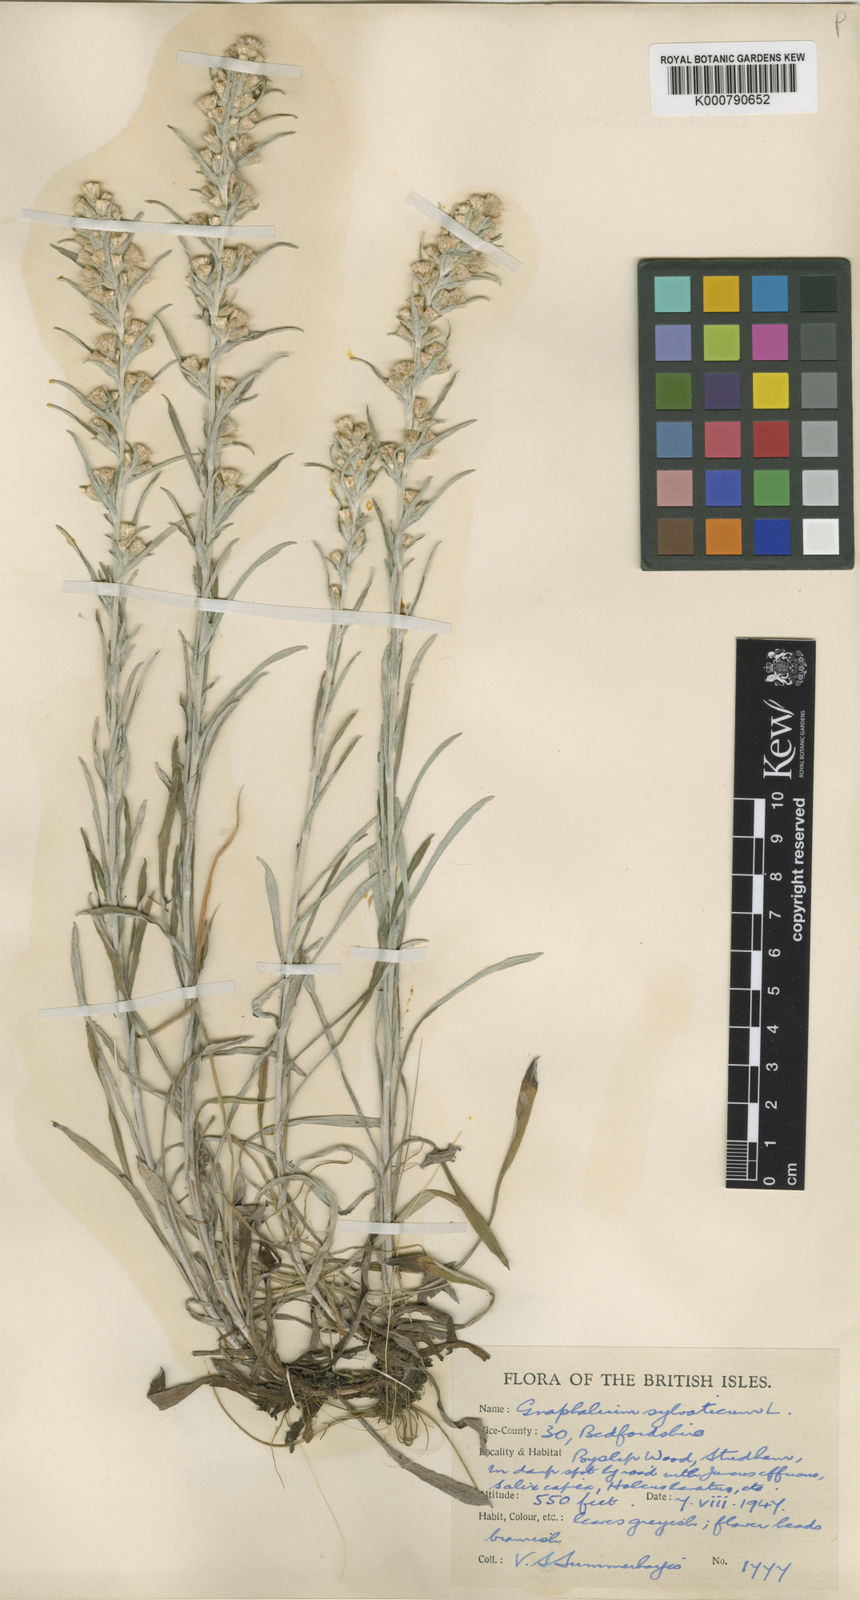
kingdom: Plantae
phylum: Tracheophyta
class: Magnoliopsida
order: Asterales
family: Asteraceae
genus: Omalotheca
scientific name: Omalotheca sylvatica
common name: Heath cudweed
